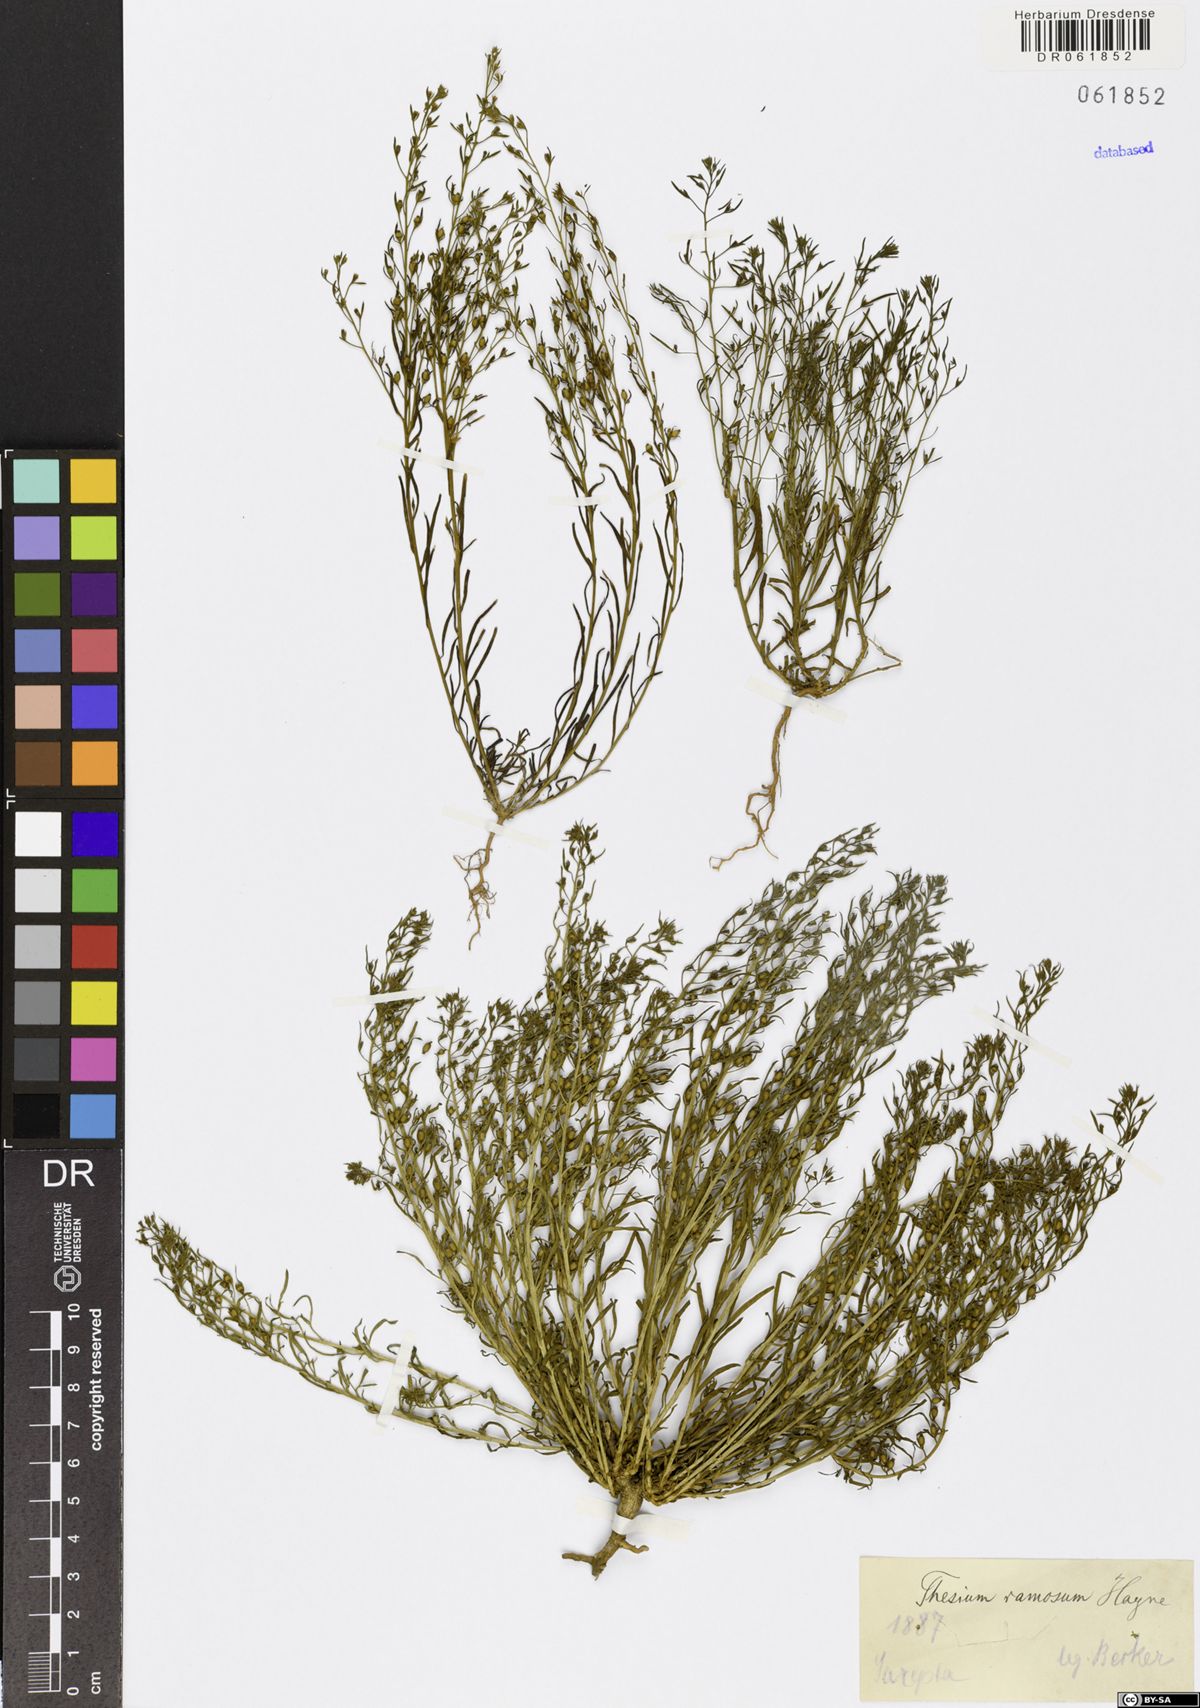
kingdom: Plantae
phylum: Tracheophyta
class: Magnoliopsida
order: Santalales
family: Thesiaceae
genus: Thesium
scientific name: Thesium ramosum
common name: Field thesium
